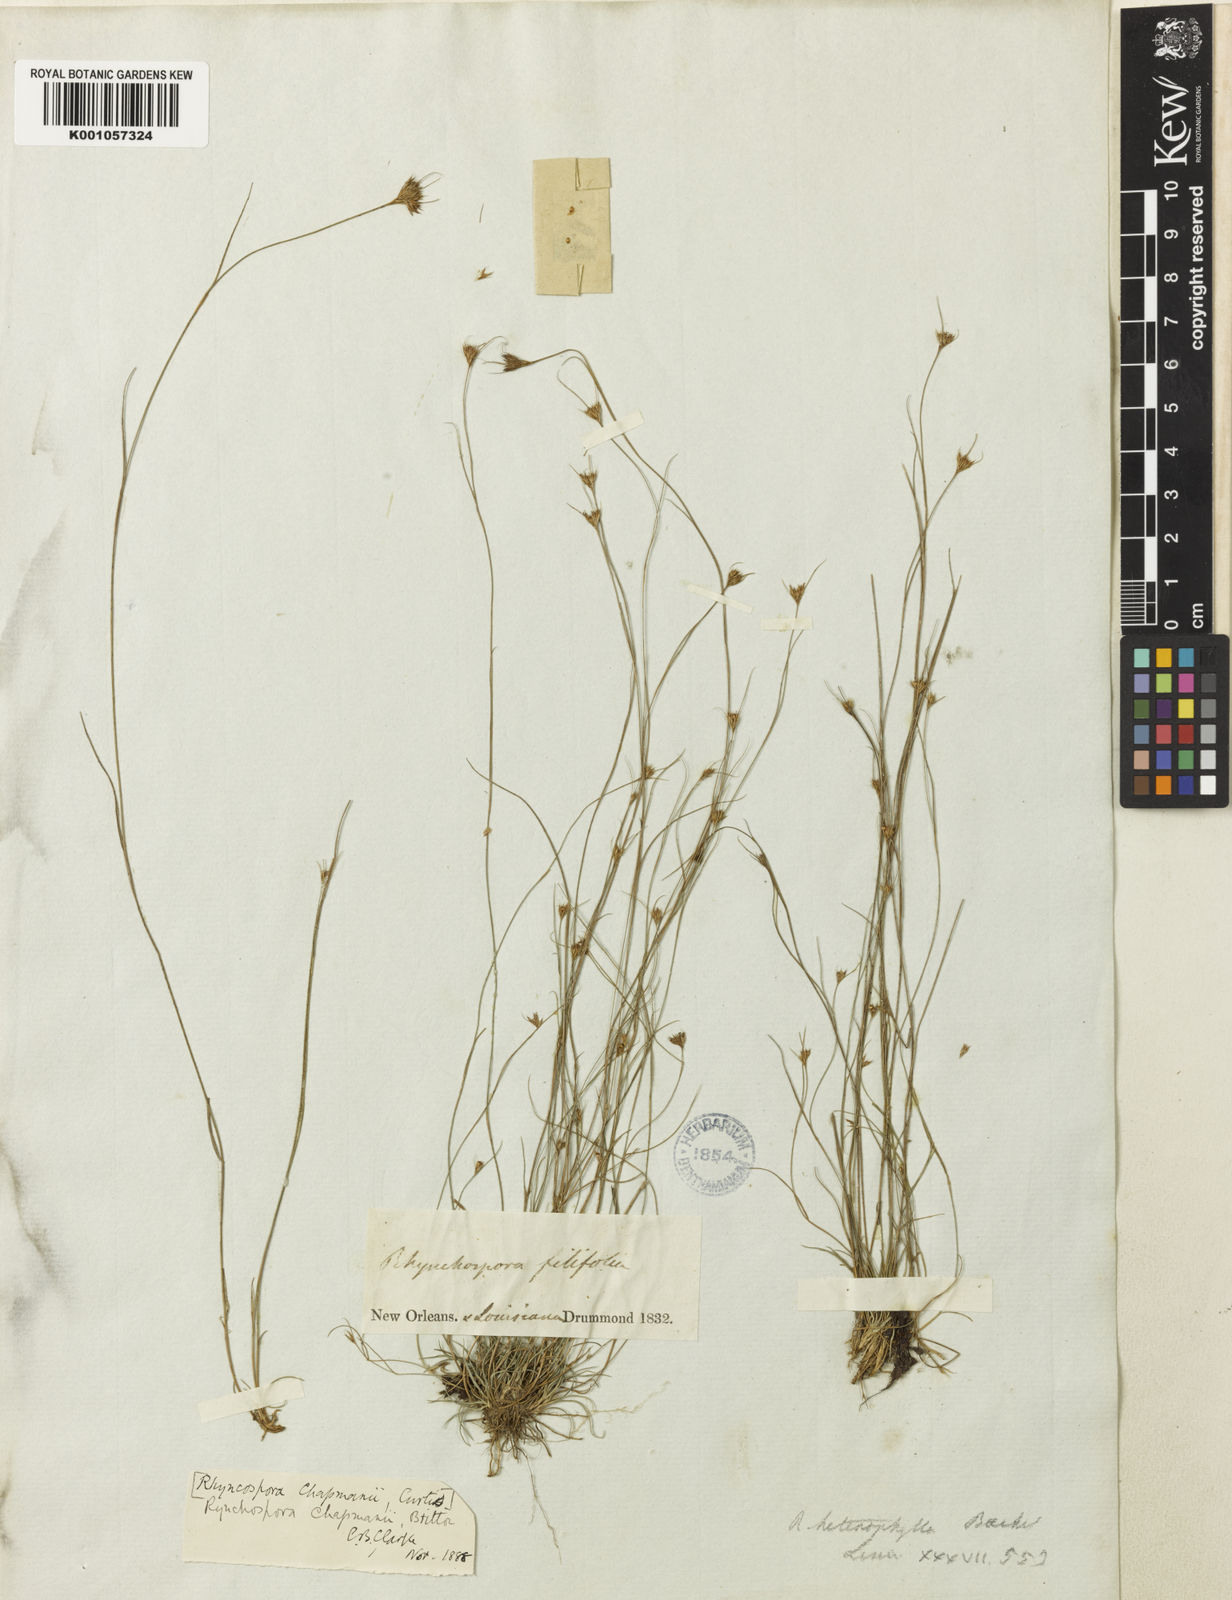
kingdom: Plantae
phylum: Tracheophyta
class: Liliopsida
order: Poales
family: Cyperaceae
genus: Rhynchospora
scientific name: Rhynchospora chapmanii
